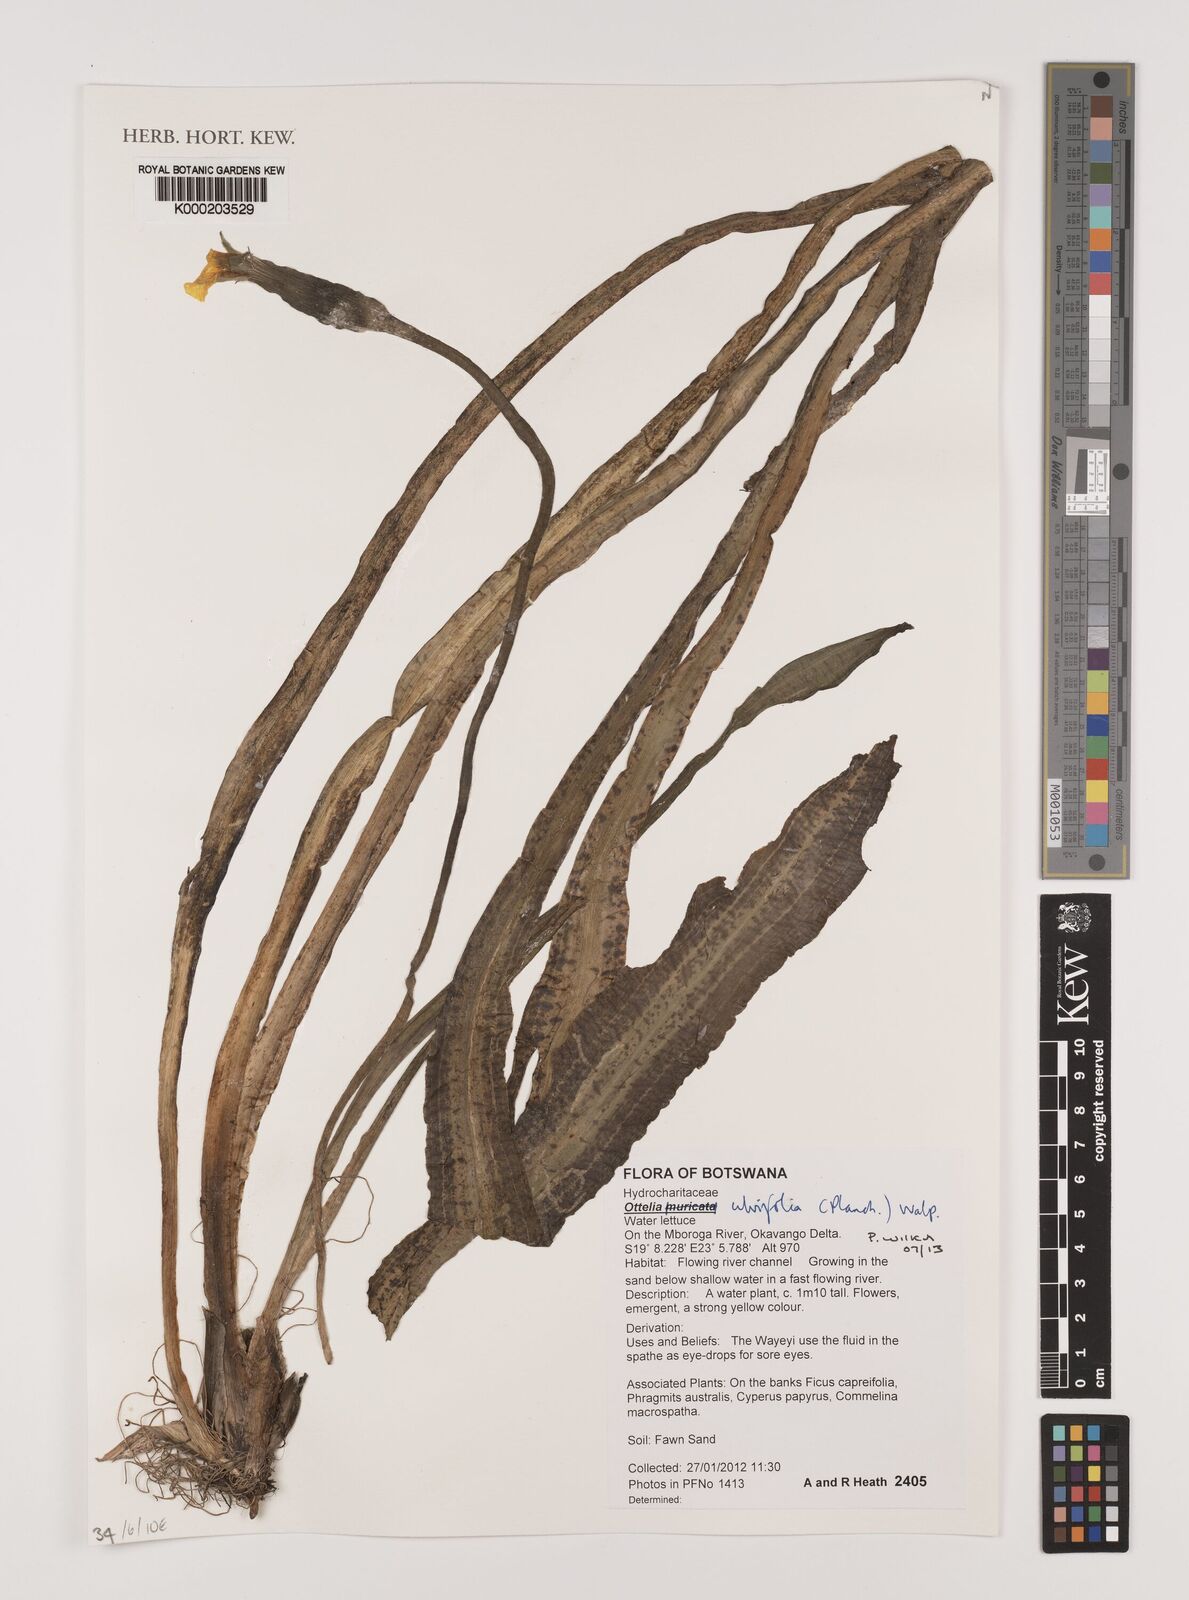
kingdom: Plantae
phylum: Tracheophyta
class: Liliopsida
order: Alismatales
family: Hydrocharitaceae
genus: Ottelia
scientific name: Ottelia ulvifolia
